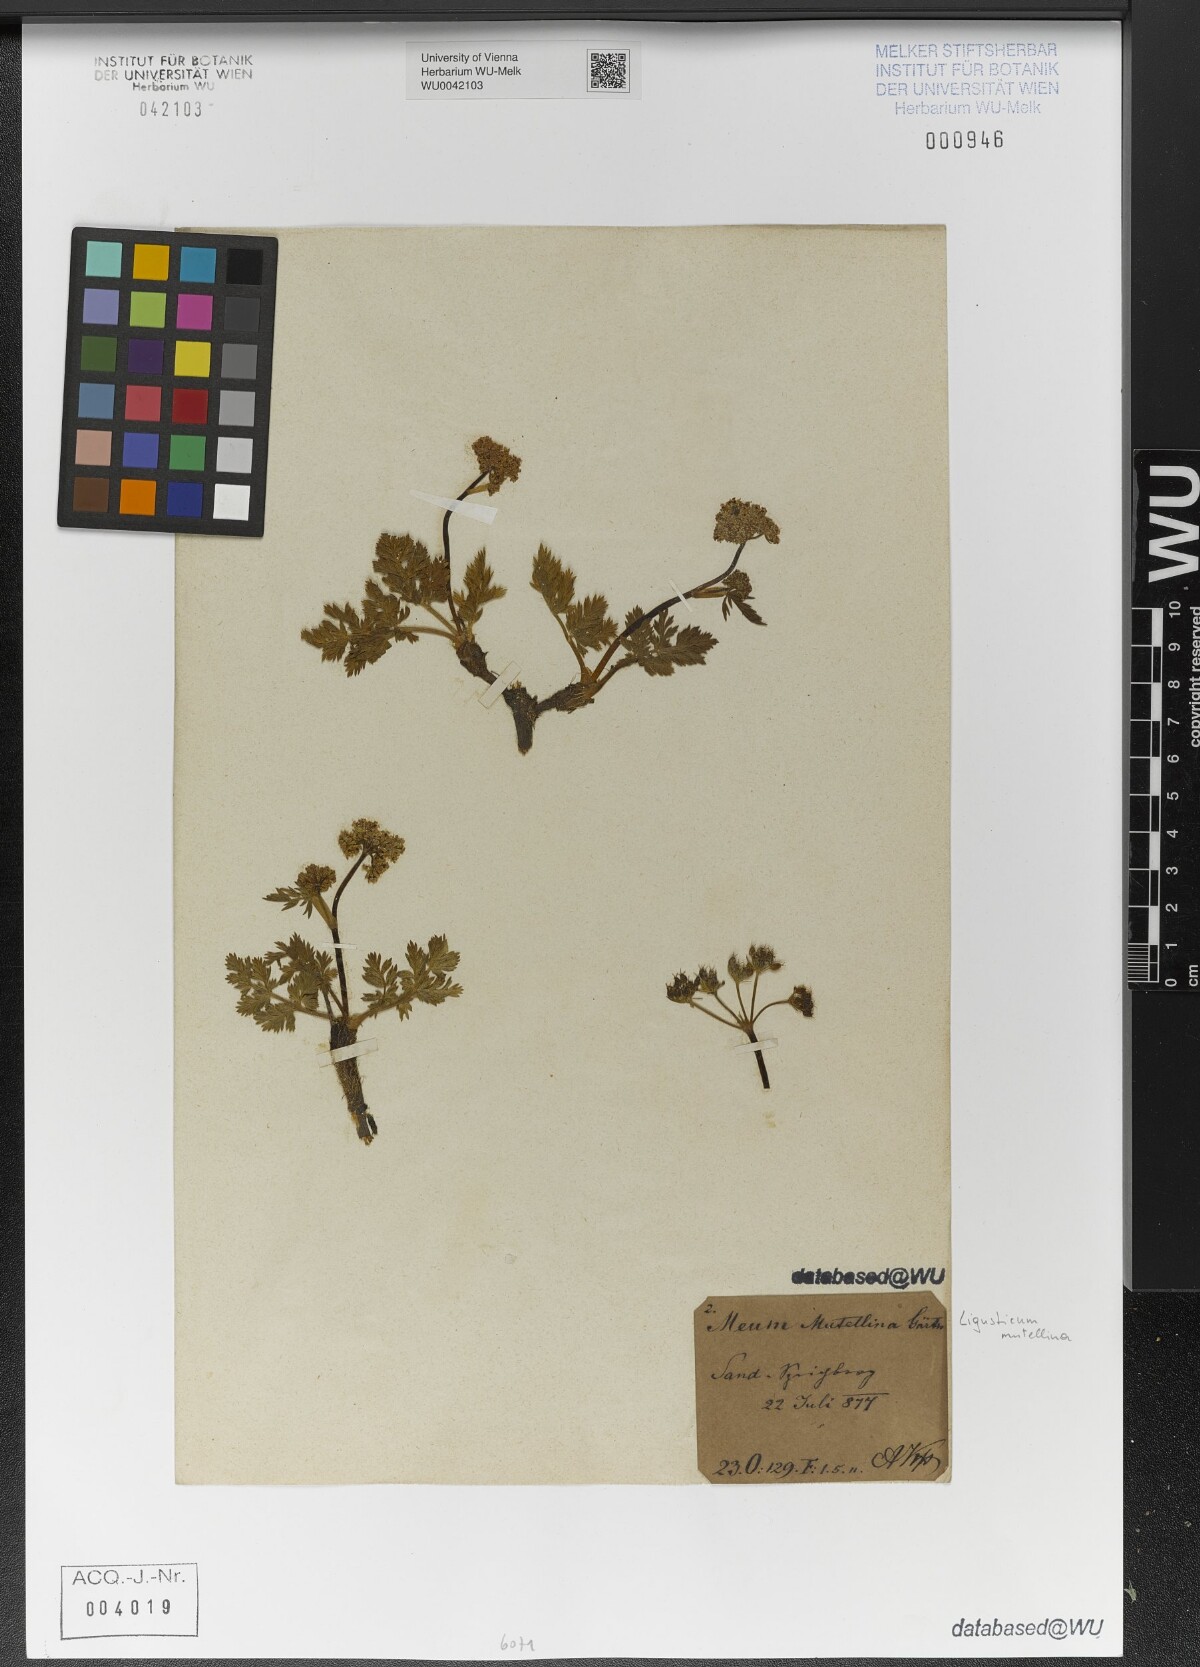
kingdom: Plantae
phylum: Tracheophyta
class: Magnoliopsida
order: Apiales
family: Apiaceae
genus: Mutellina
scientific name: Mutellina adonidifolia
